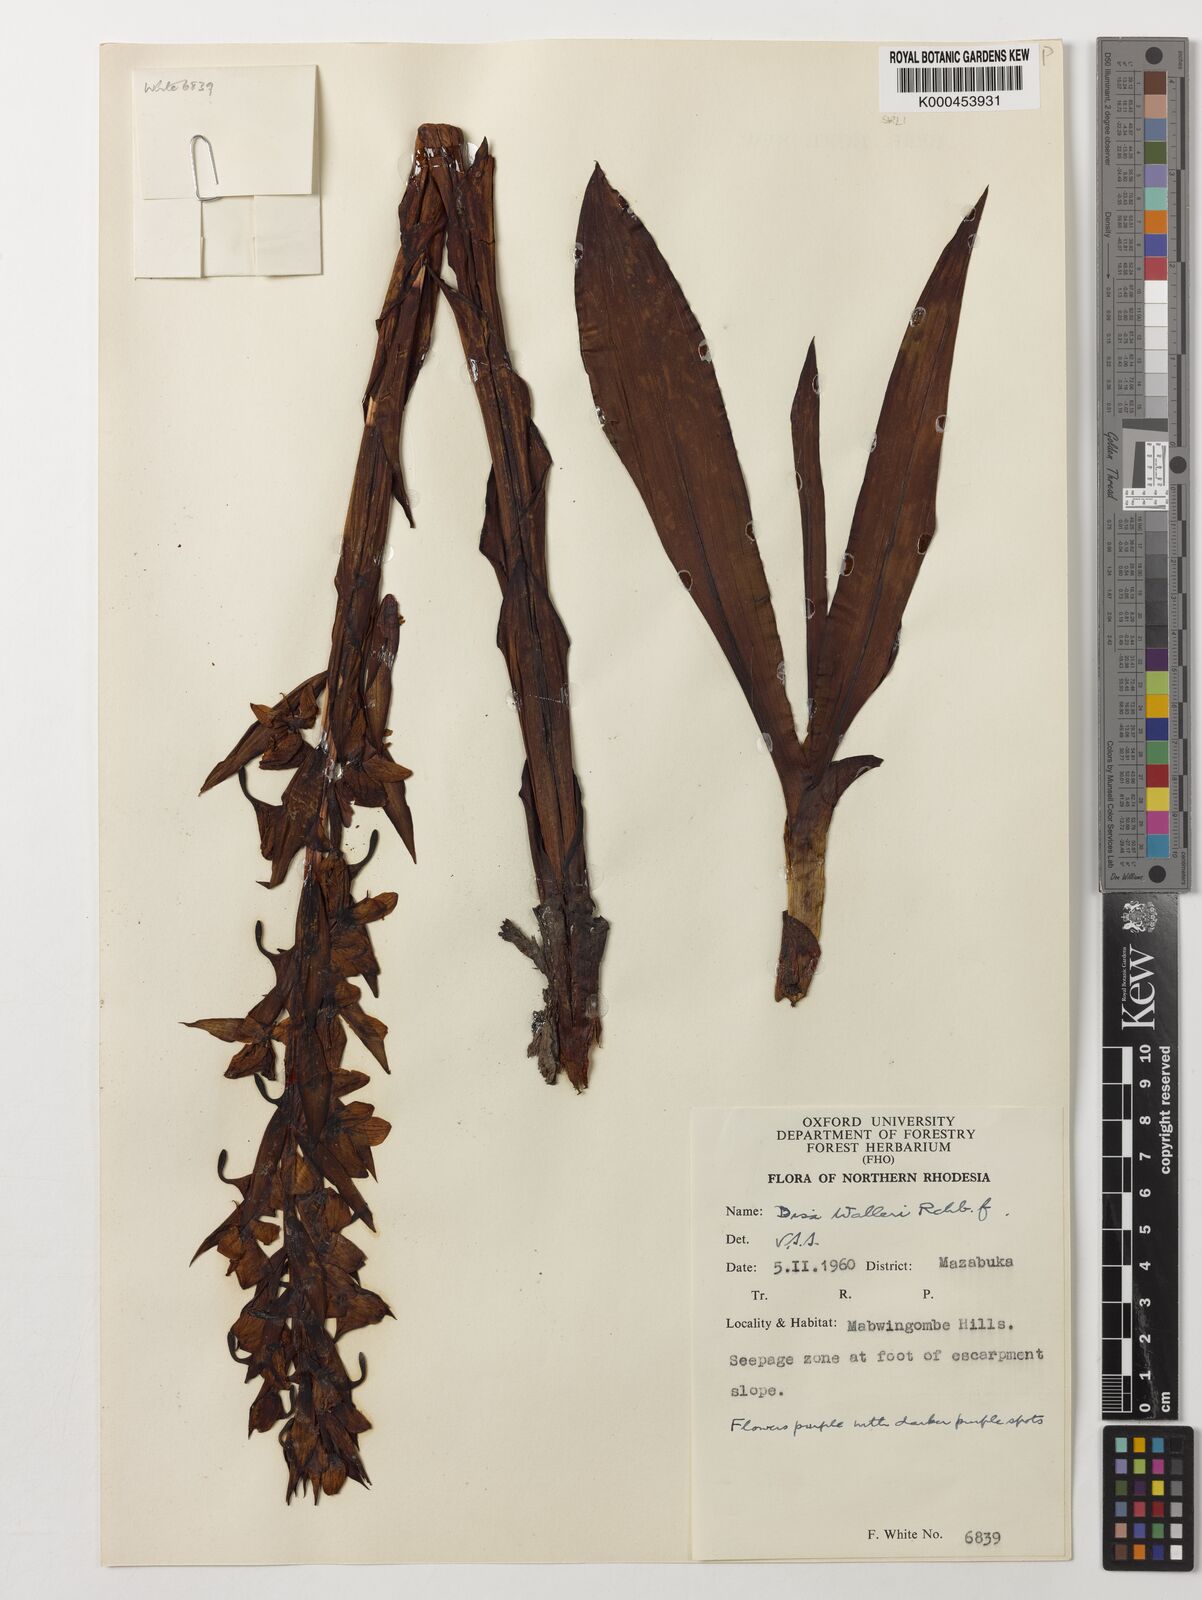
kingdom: Plantae
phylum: Tracheophyta
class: Liliopsida
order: Asparagales
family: Orchidaceae
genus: Disa
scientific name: Disa walleri
